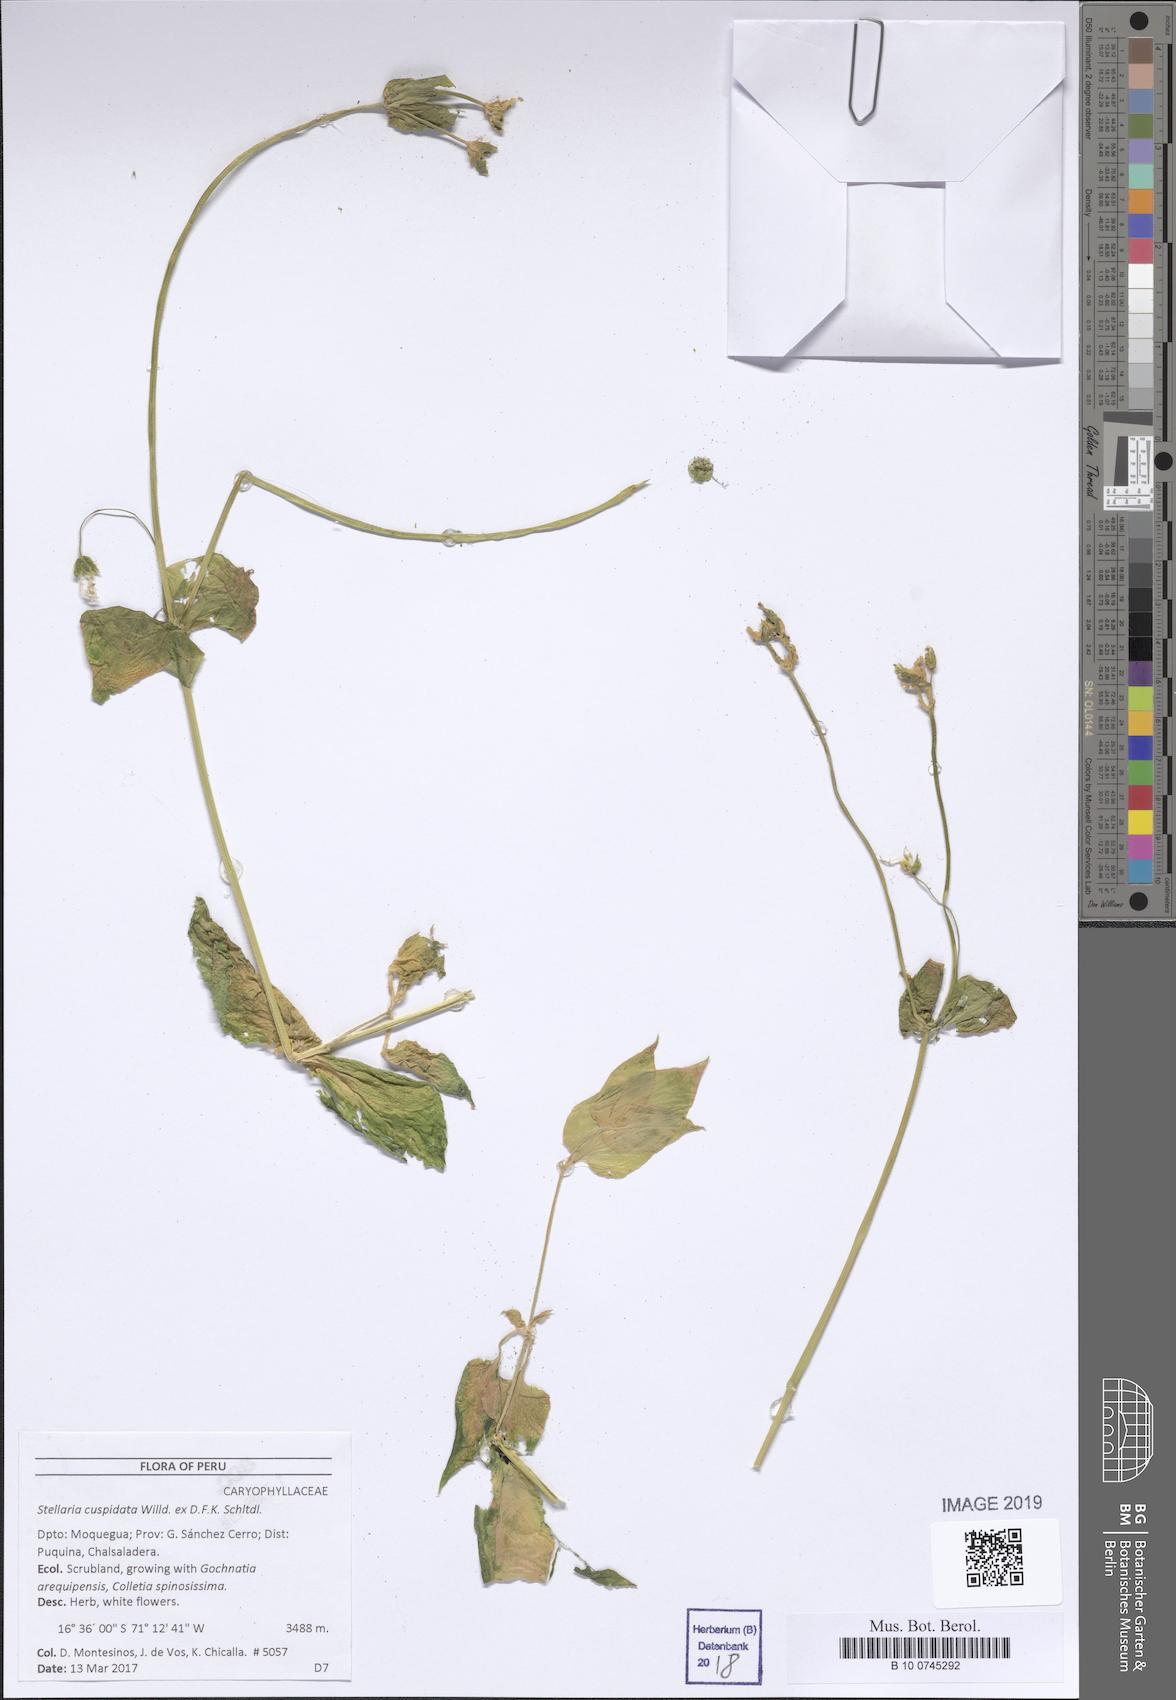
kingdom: Plantae
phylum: Tracheophyta
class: Magnoliopsida
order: Caryophyllales
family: Caryophyllaceae
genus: Stellaria
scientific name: Stellaria cuspidata
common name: Mexican chickweed
